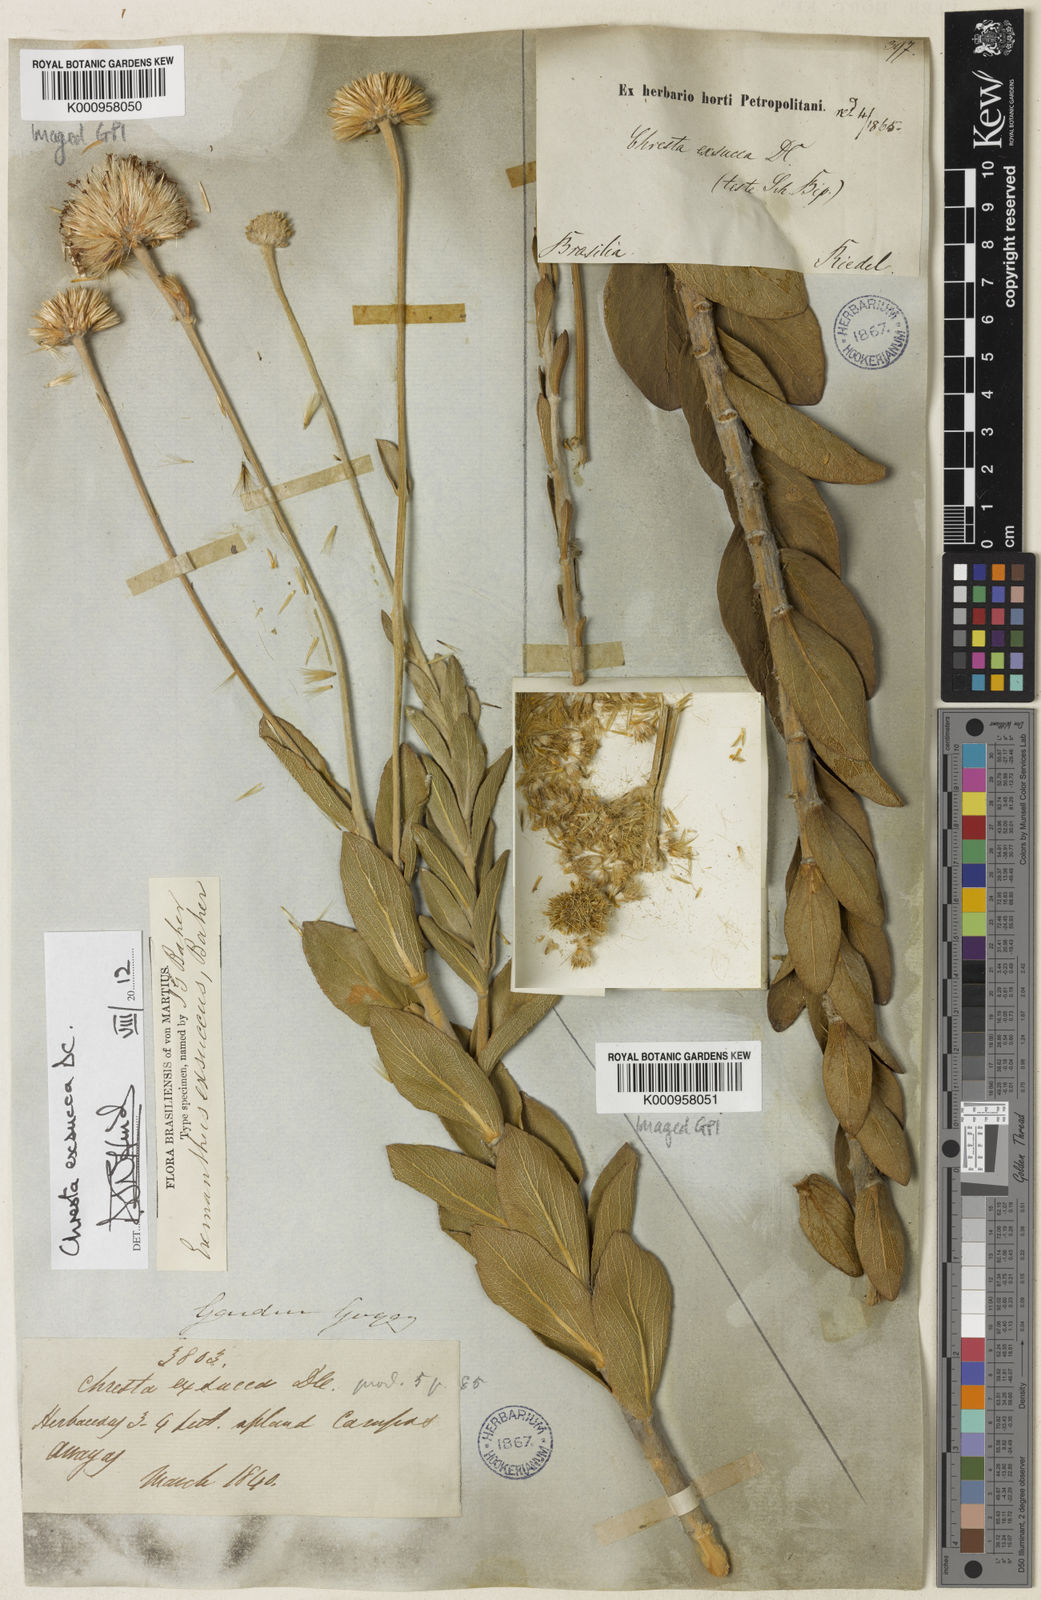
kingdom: Plantae
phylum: Tracheophyta
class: Magnoliopsida
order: Asterales
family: Asteraceae
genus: Chresta
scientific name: Chresta exsucca
